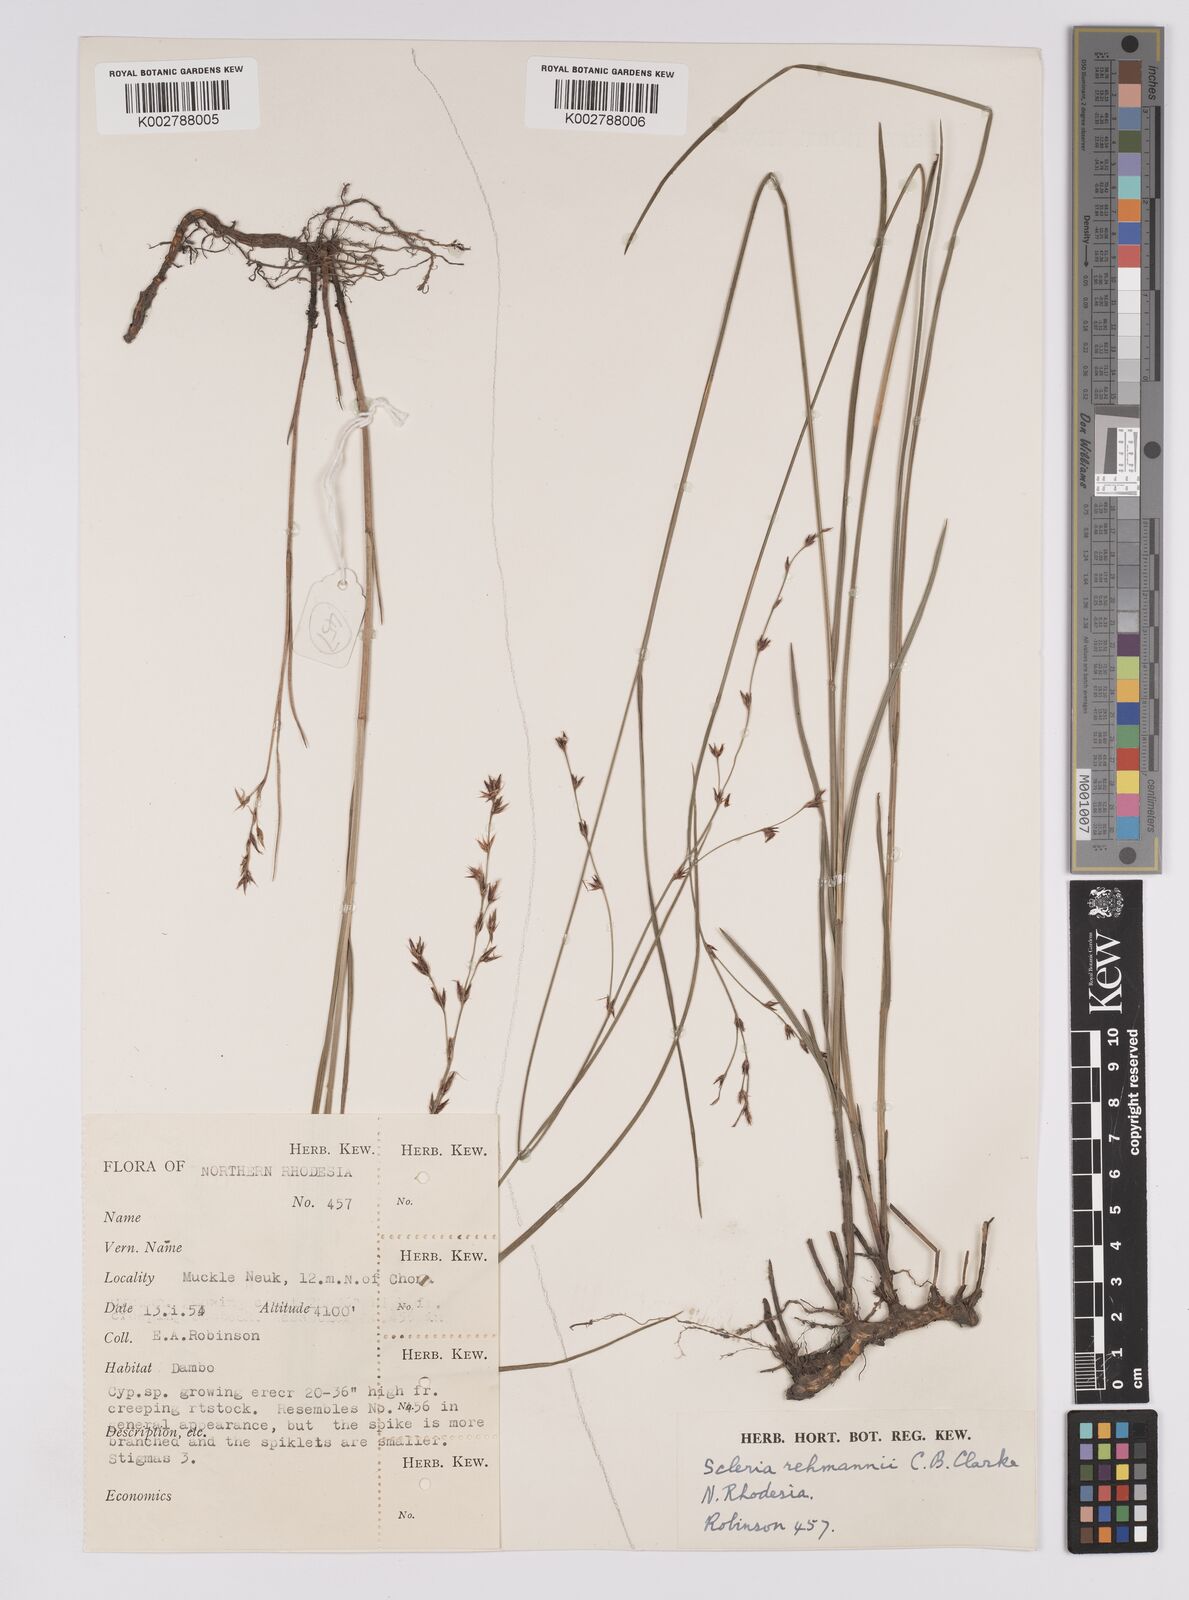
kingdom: Plantae
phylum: Tracheophyta
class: Liliopsida
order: Poales
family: Cyperaceae
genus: Scleria
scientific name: Scleria rehmannii
